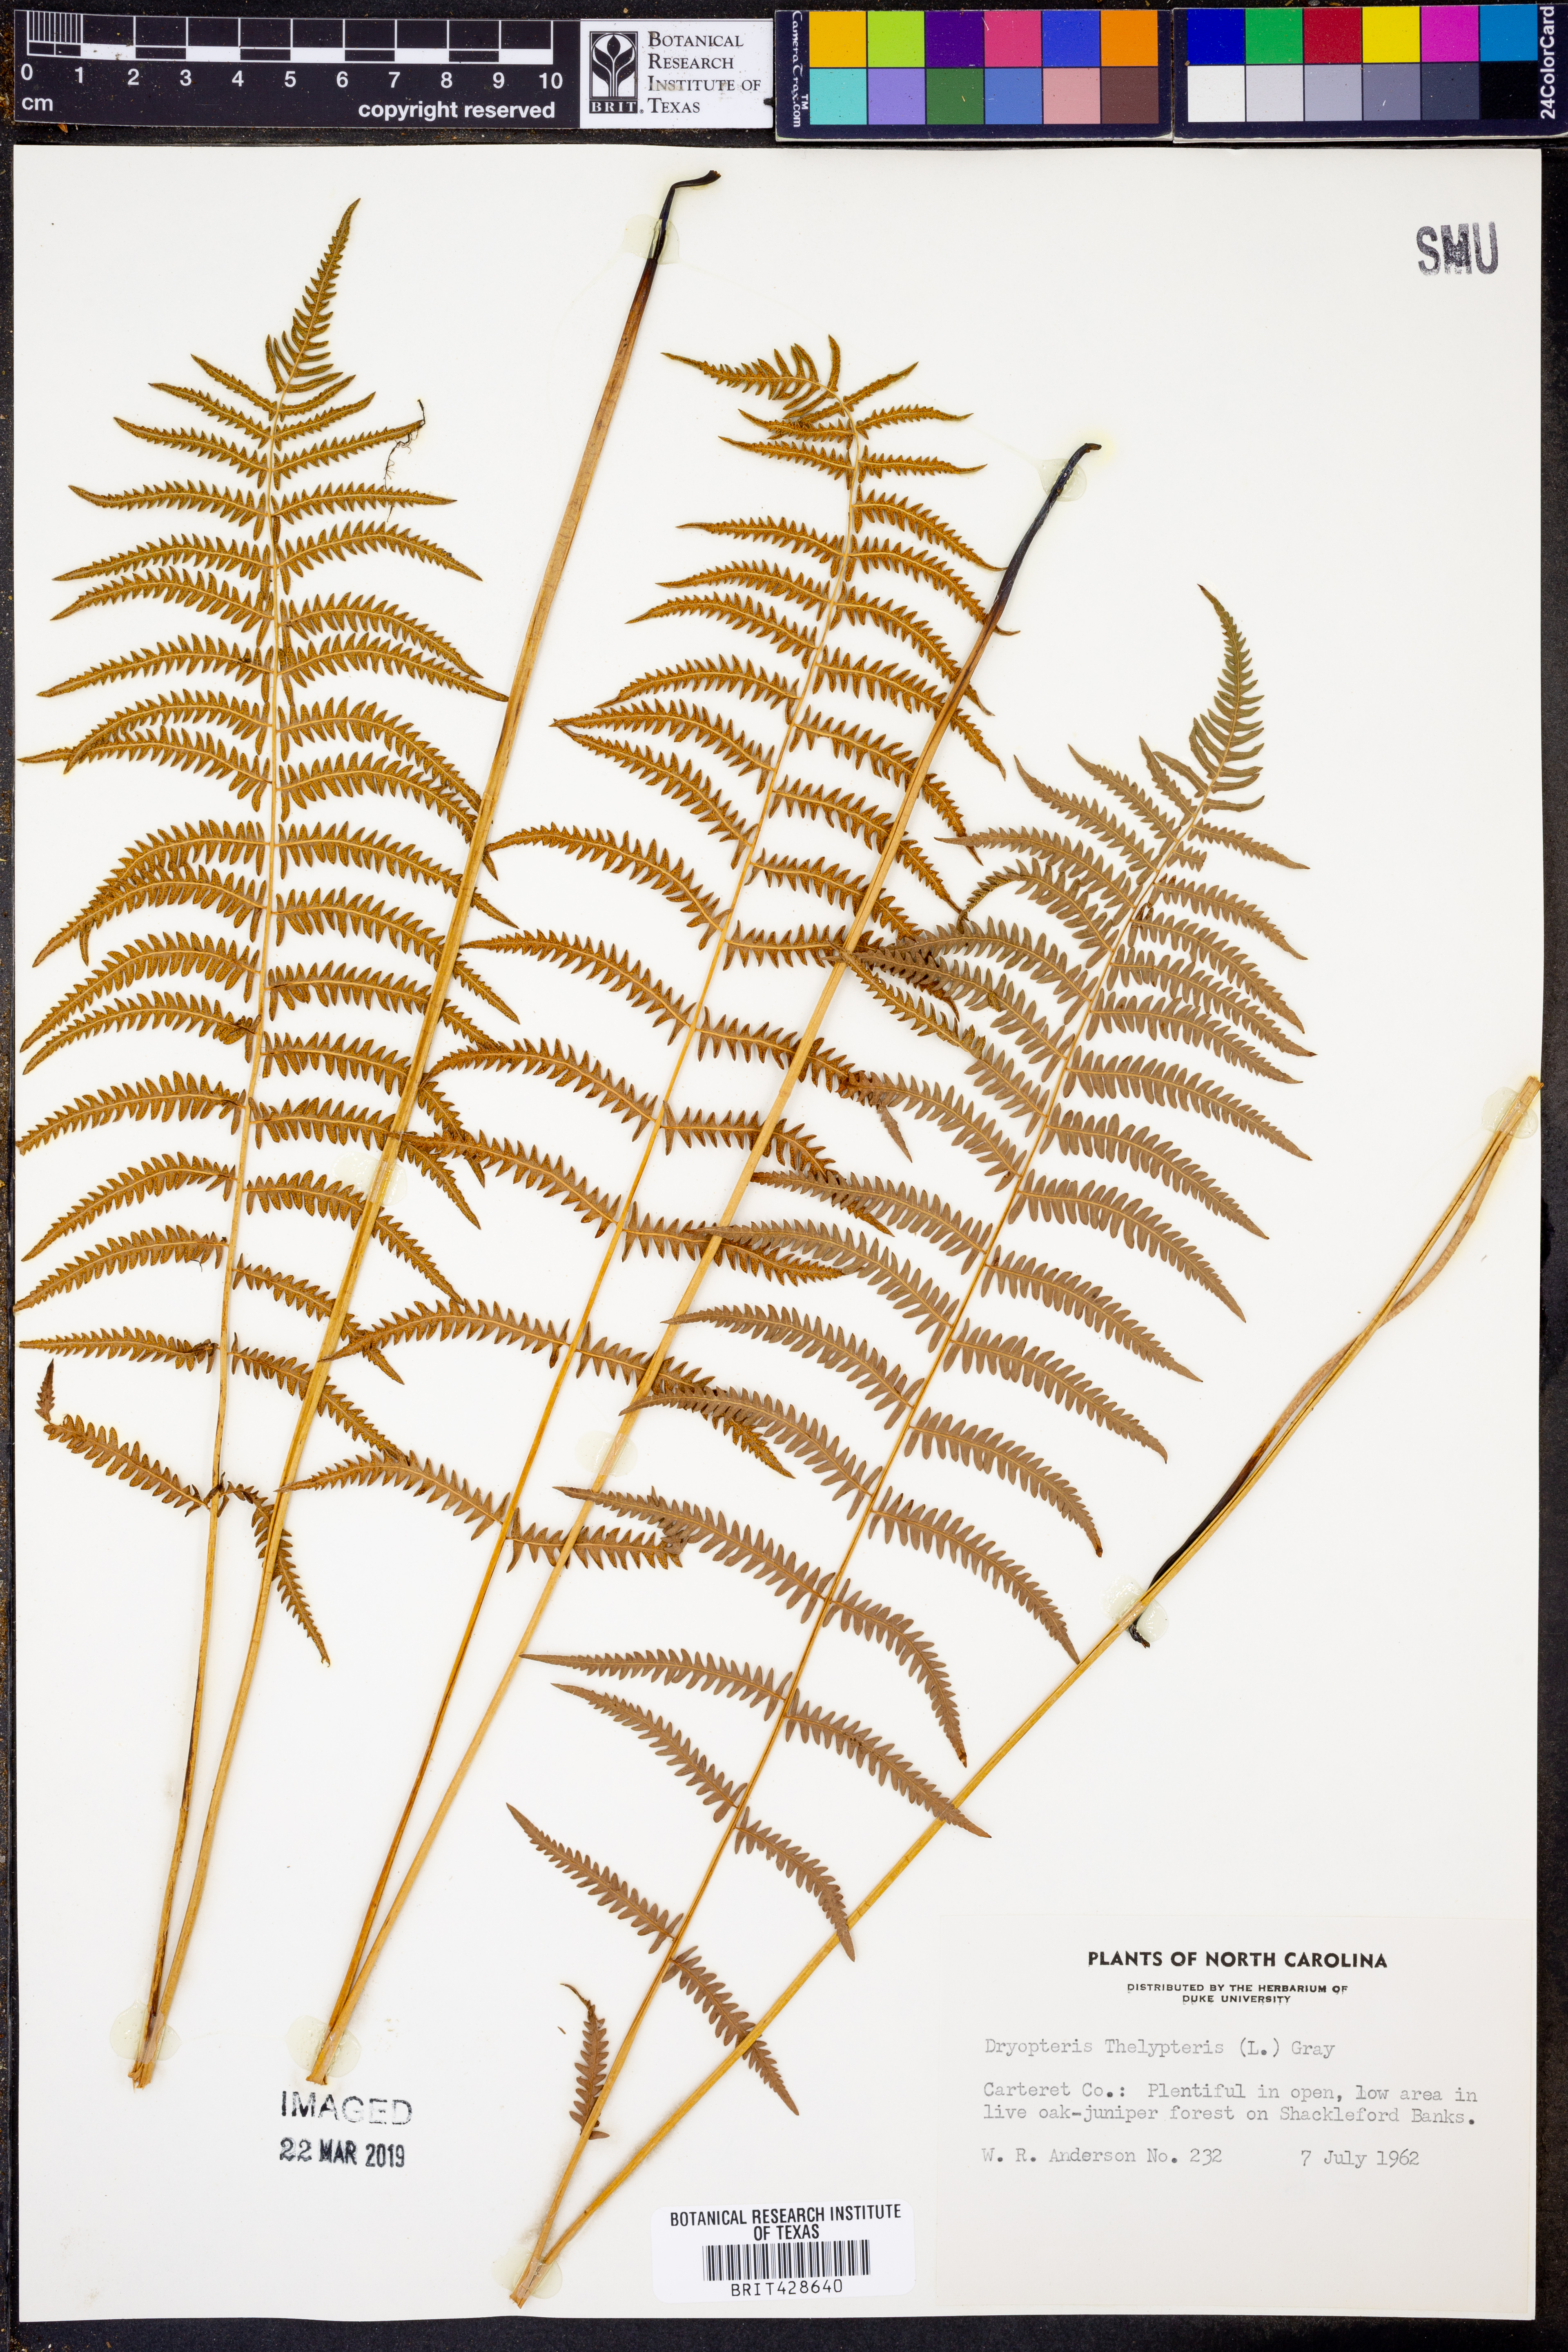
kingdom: Plantae
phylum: Tracheophyta
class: Polypodiopsida
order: Polypodiales
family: Thelypteridaceae
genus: Thelypteris
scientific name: Thelypteris palustris
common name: Marsh fern
